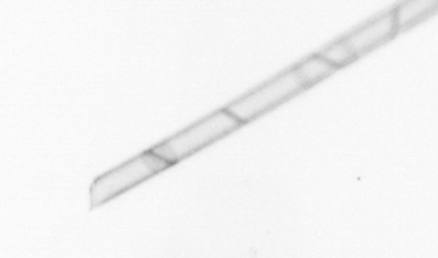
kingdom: Chromista
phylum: Ochrophyta
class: Bacillariophyceae
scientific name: Bacillariophyceae
